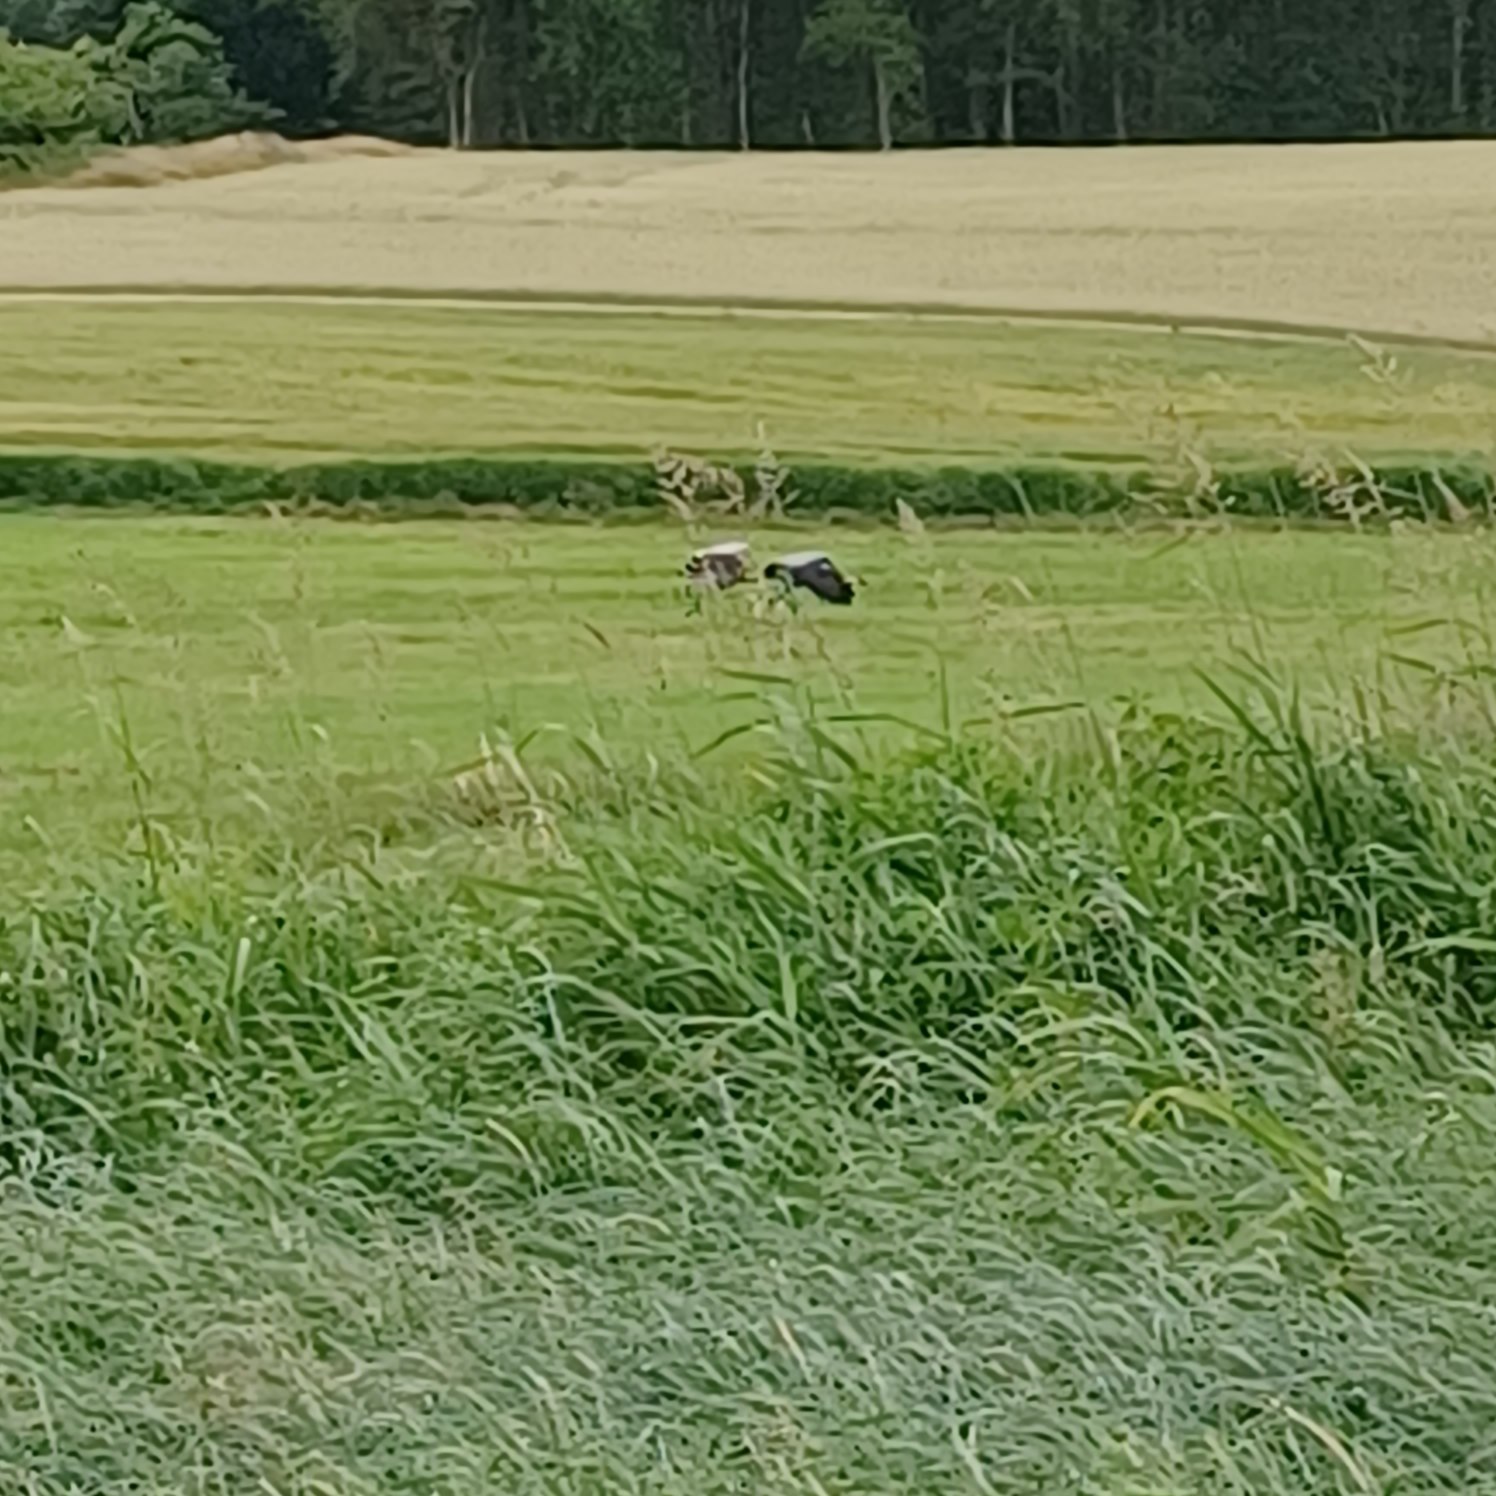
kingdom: Animalia
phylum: Chordata
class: Aves
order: Gruiformes
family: Gruidae
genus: Grus
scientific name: Grus grus
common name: Trane
